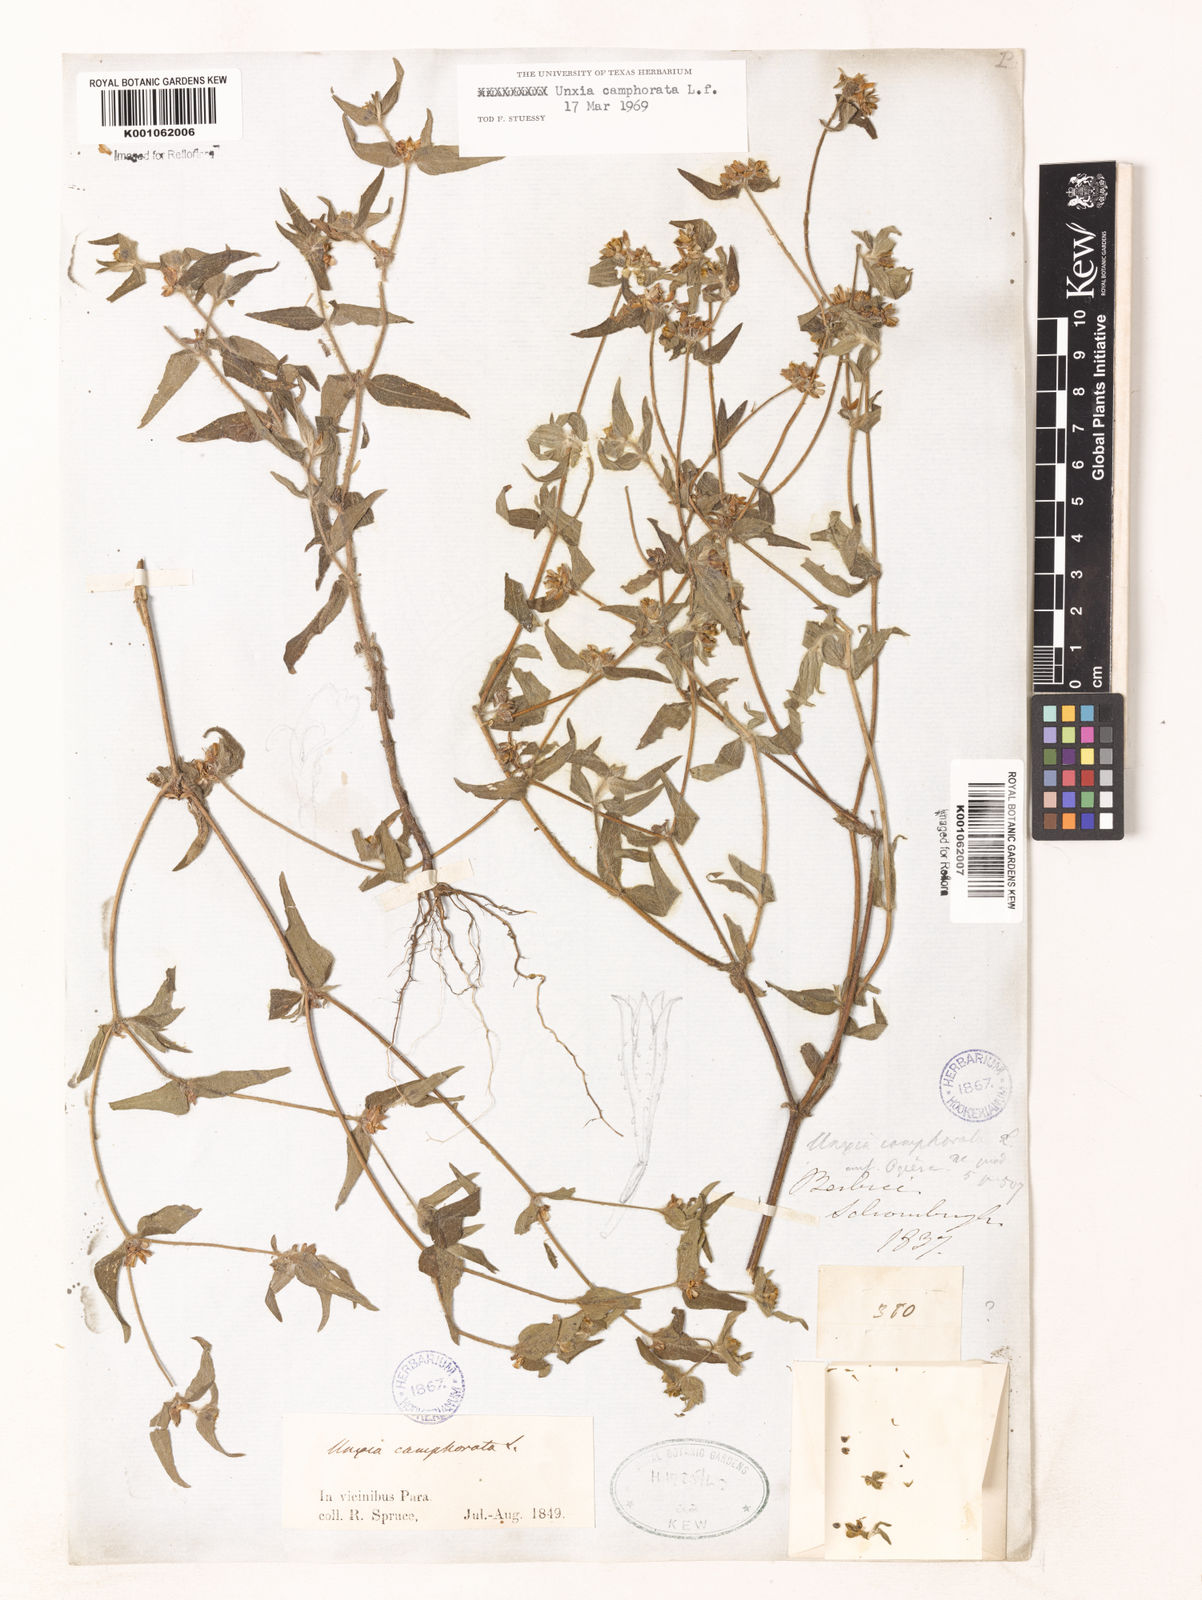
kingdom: Plantae
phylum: Tracheophyta
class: Magnoliopsida
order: Asterales
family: Asteraceae
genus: Unxia
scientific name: Unxia camphorata
